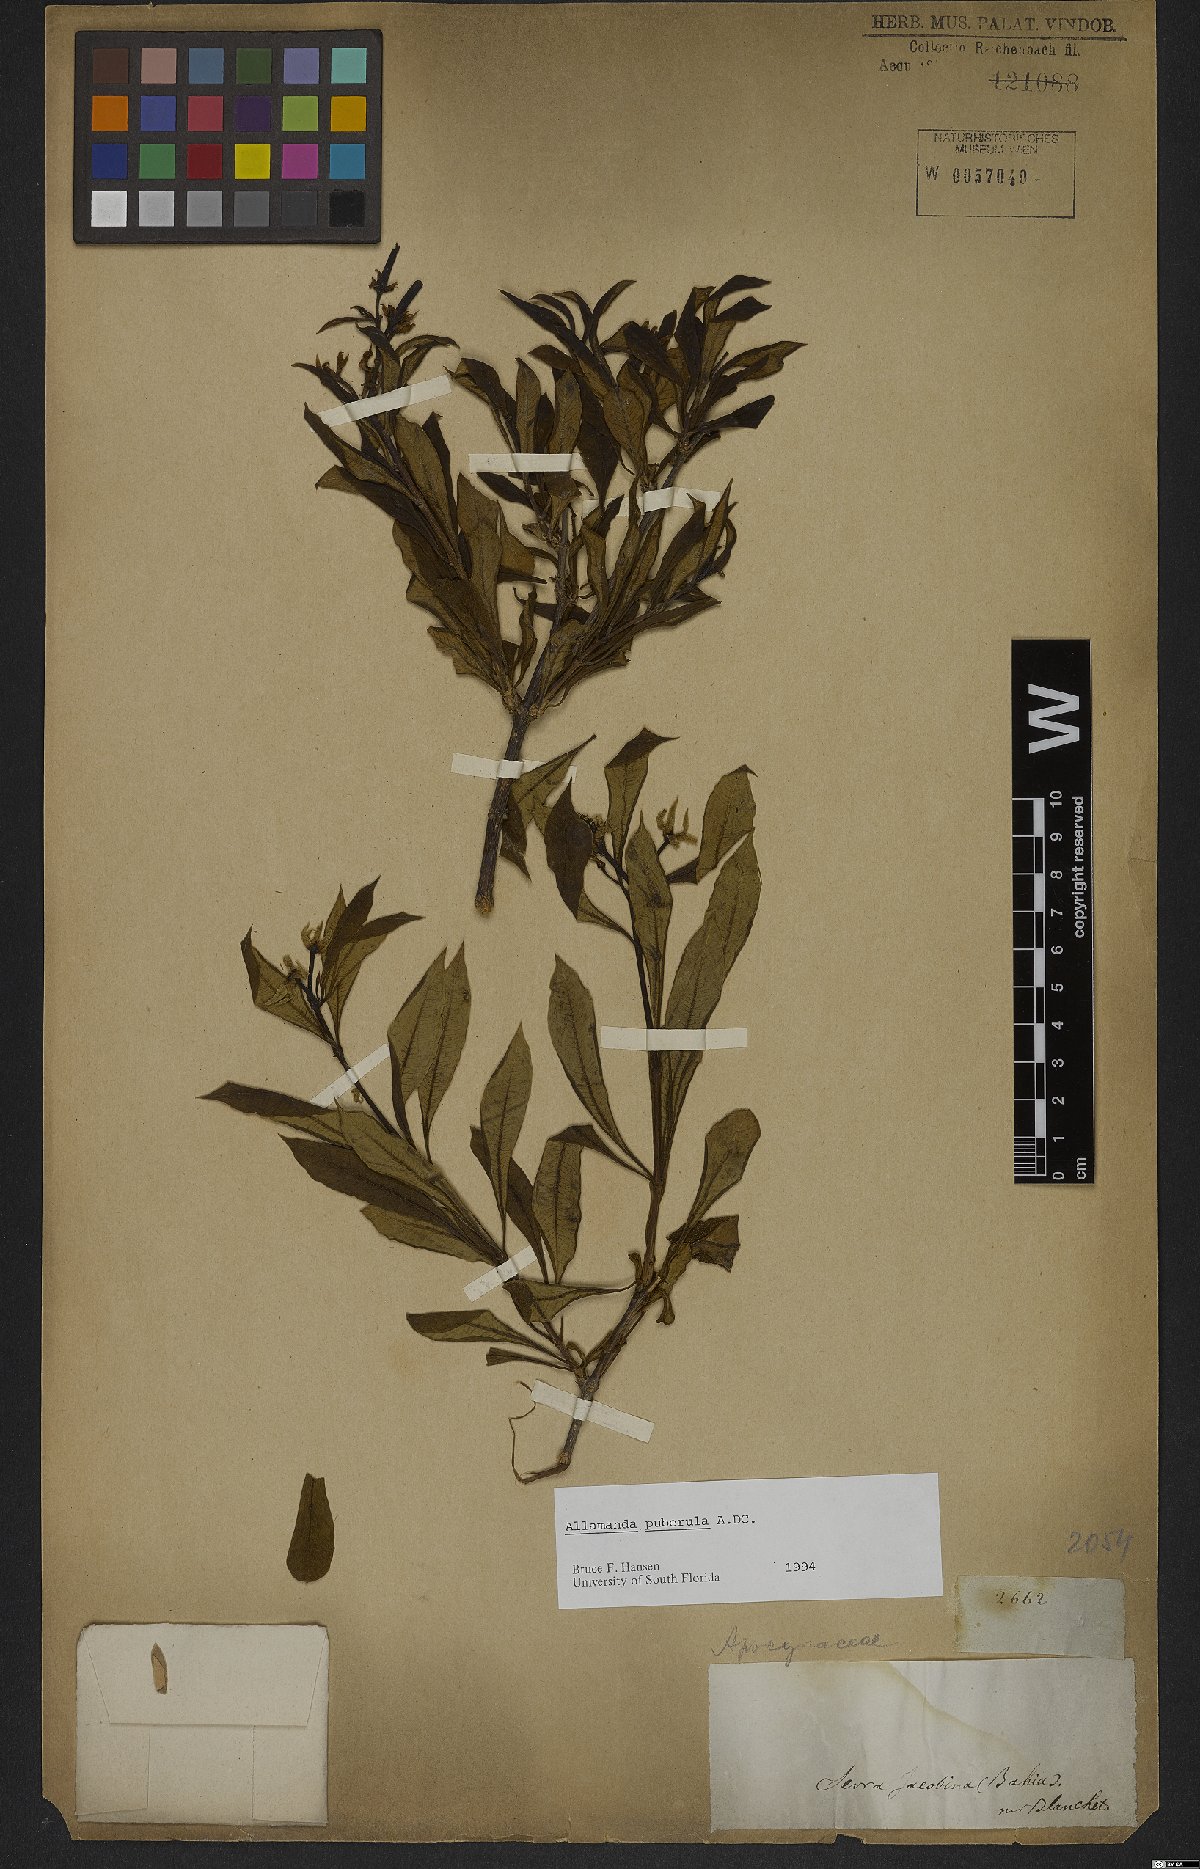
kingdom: Plantae
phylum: Tracheophyta
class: Magnoliopsida
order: Gentianales
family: Apocynaceae
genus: Allamanda
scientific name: Allamanda puberula
